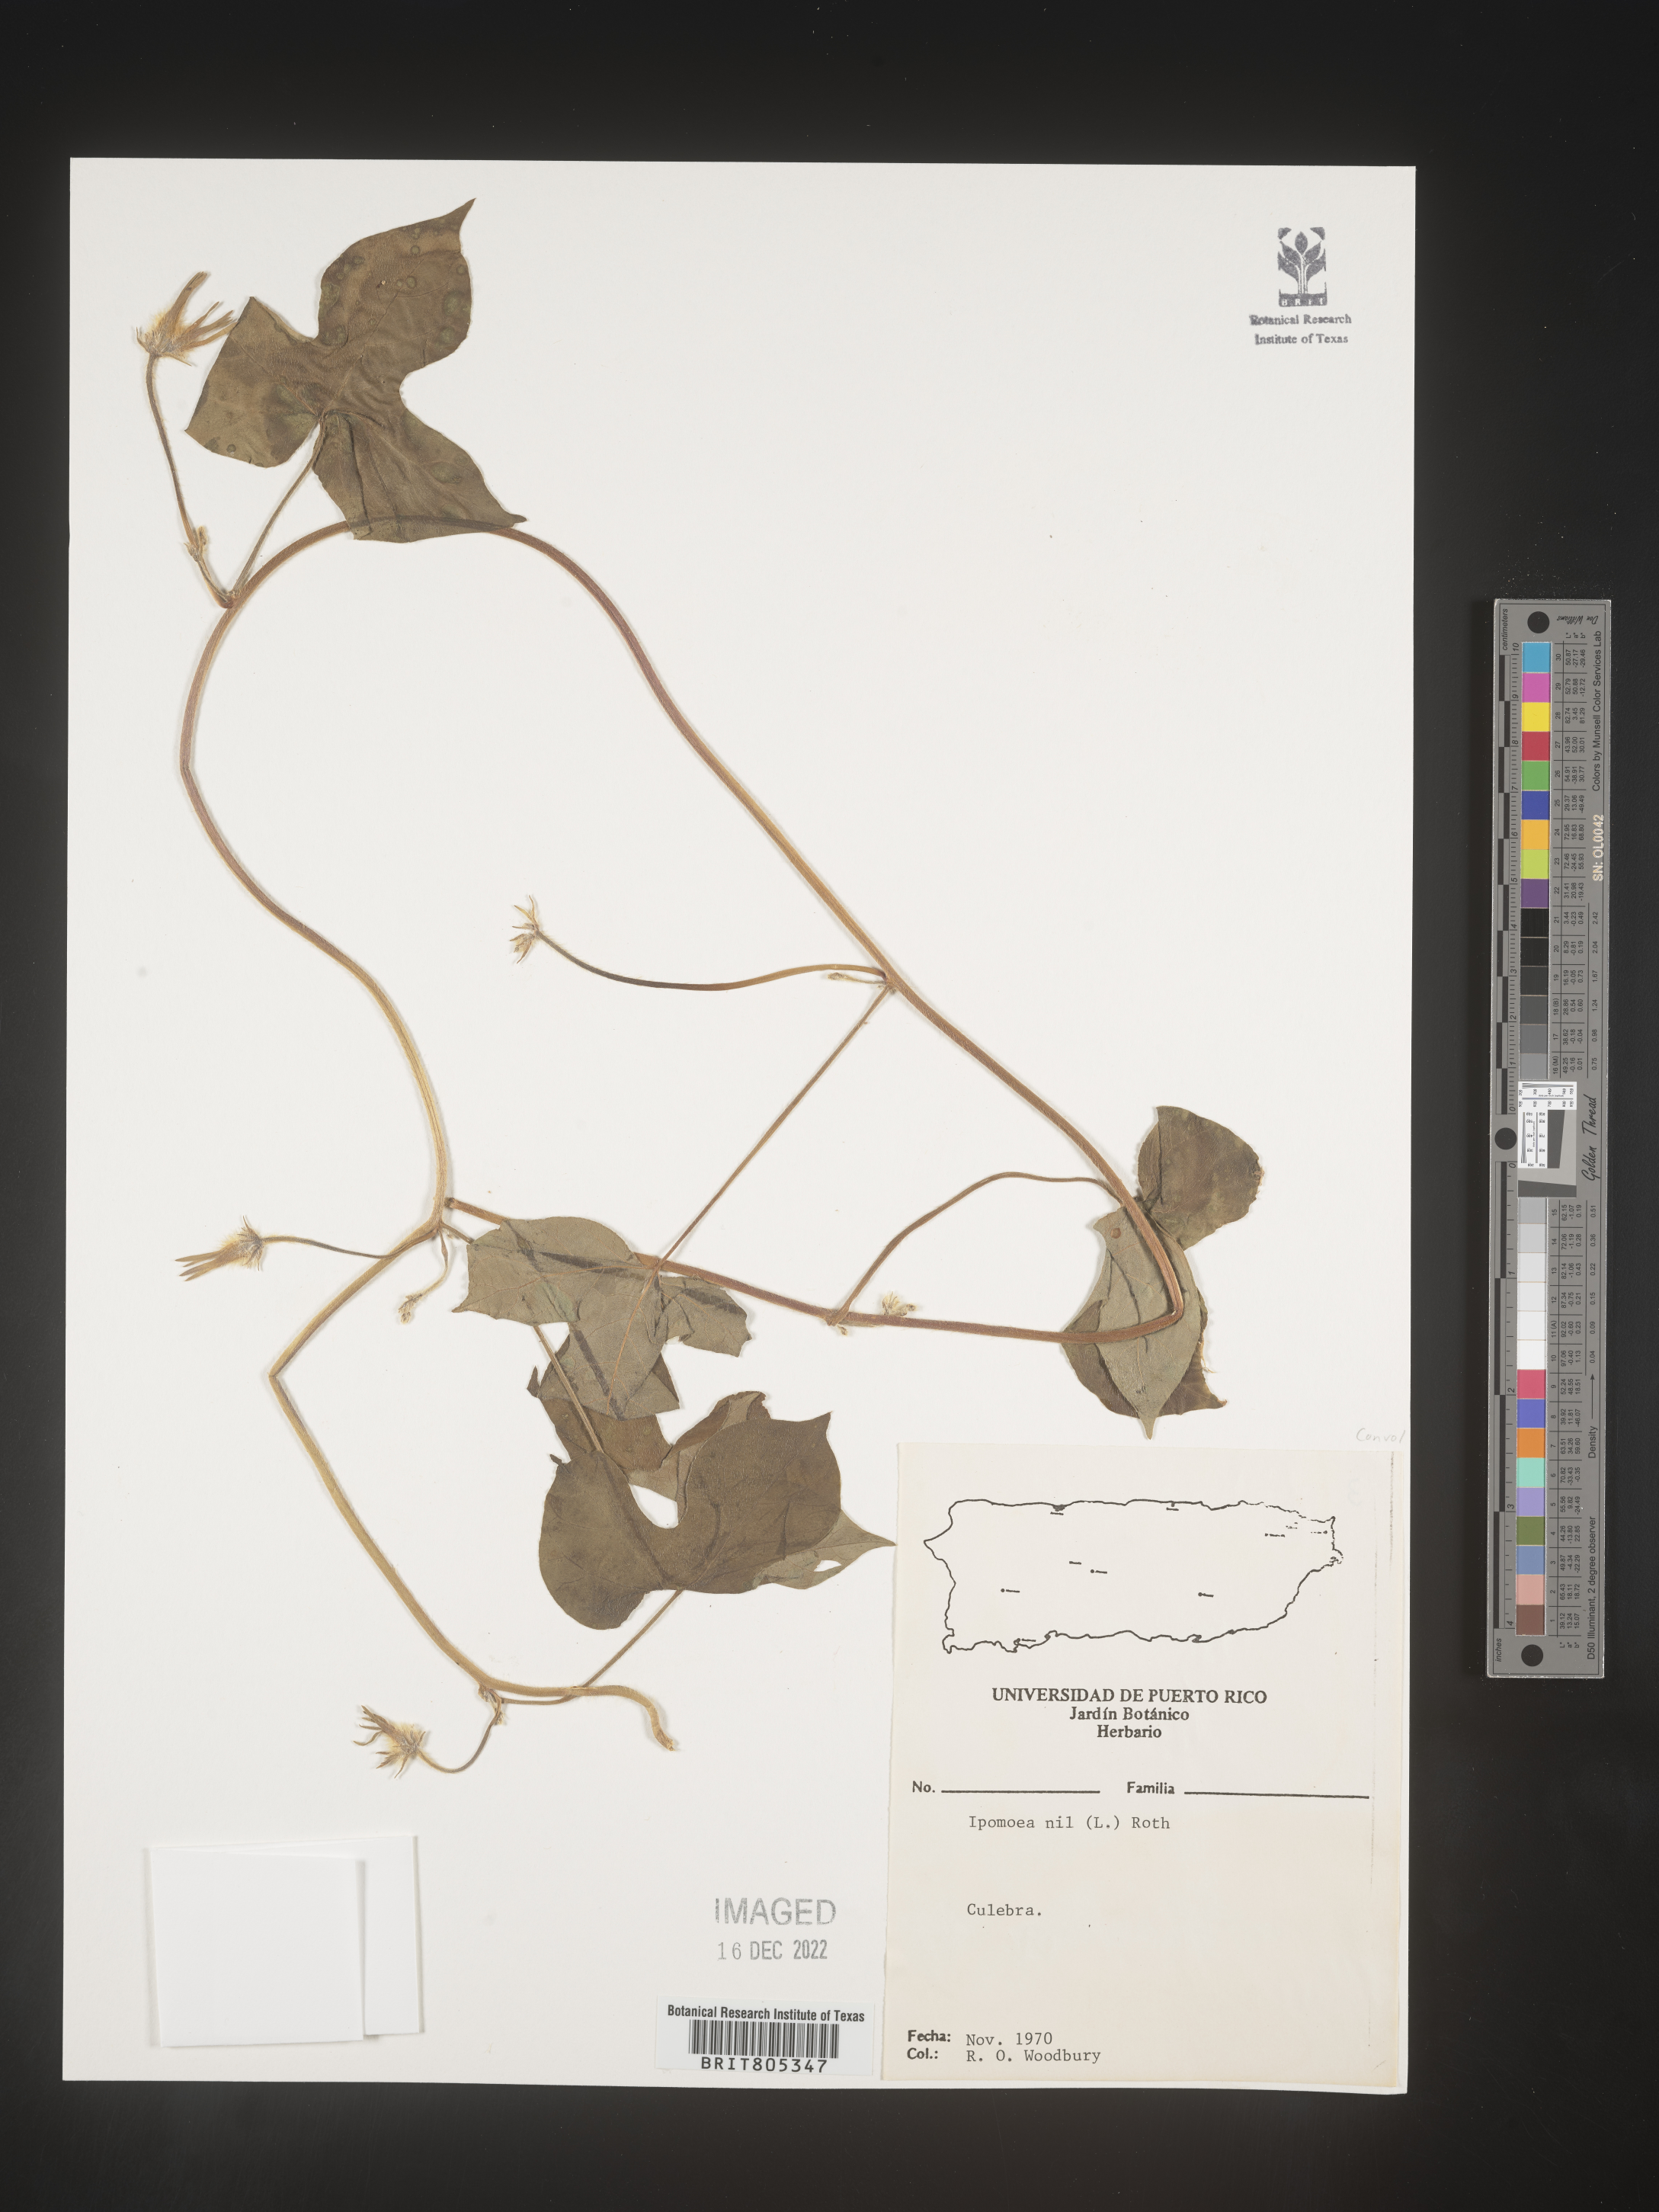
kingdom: Plantae
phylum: Tracheophyta
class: Magnoliopsida
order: Solanales
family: Convolvulaceae
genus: Ipomoea
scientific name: Ipomoea
